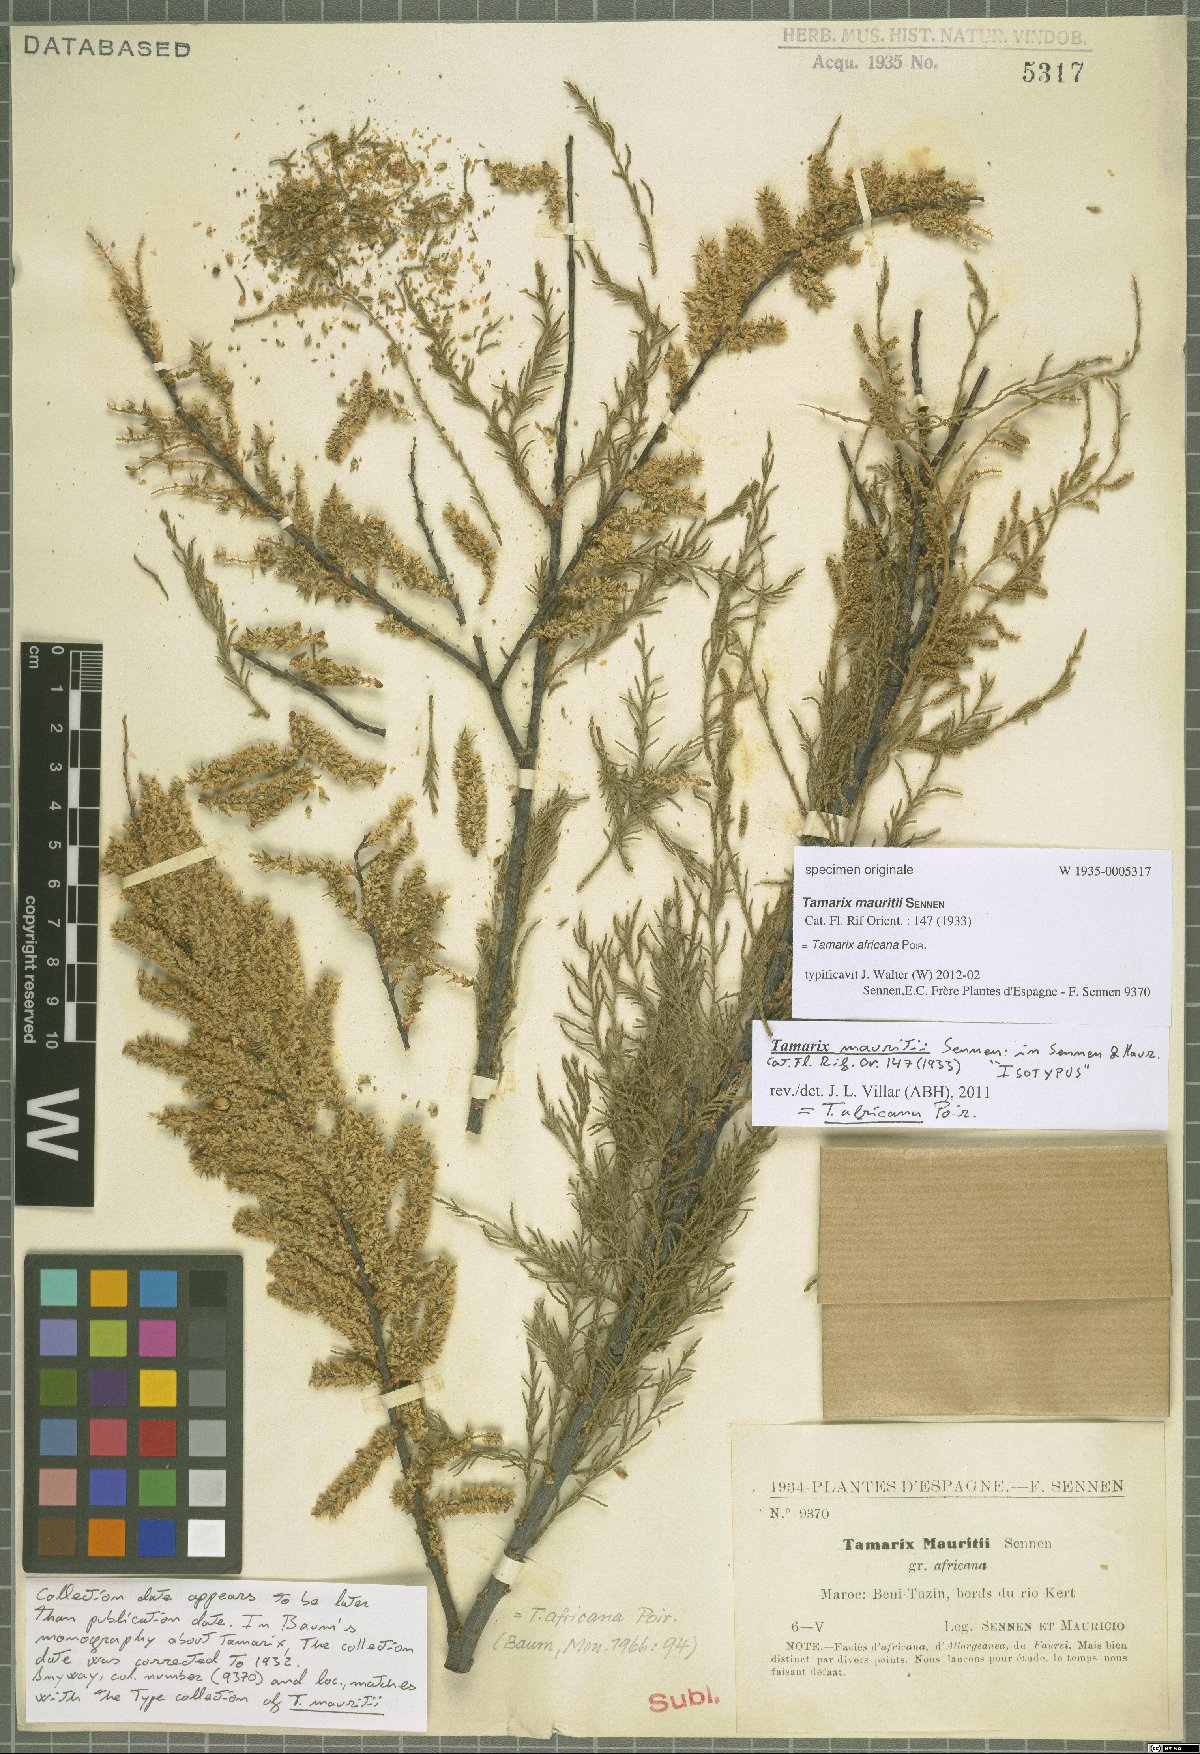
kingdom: Plantae
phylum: Tracheophyta
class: Magnoliopsida
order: Caryophyllales
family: Tamaricaceae
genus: Tamarix
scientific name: Tamarix africana
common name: African tamarisk
